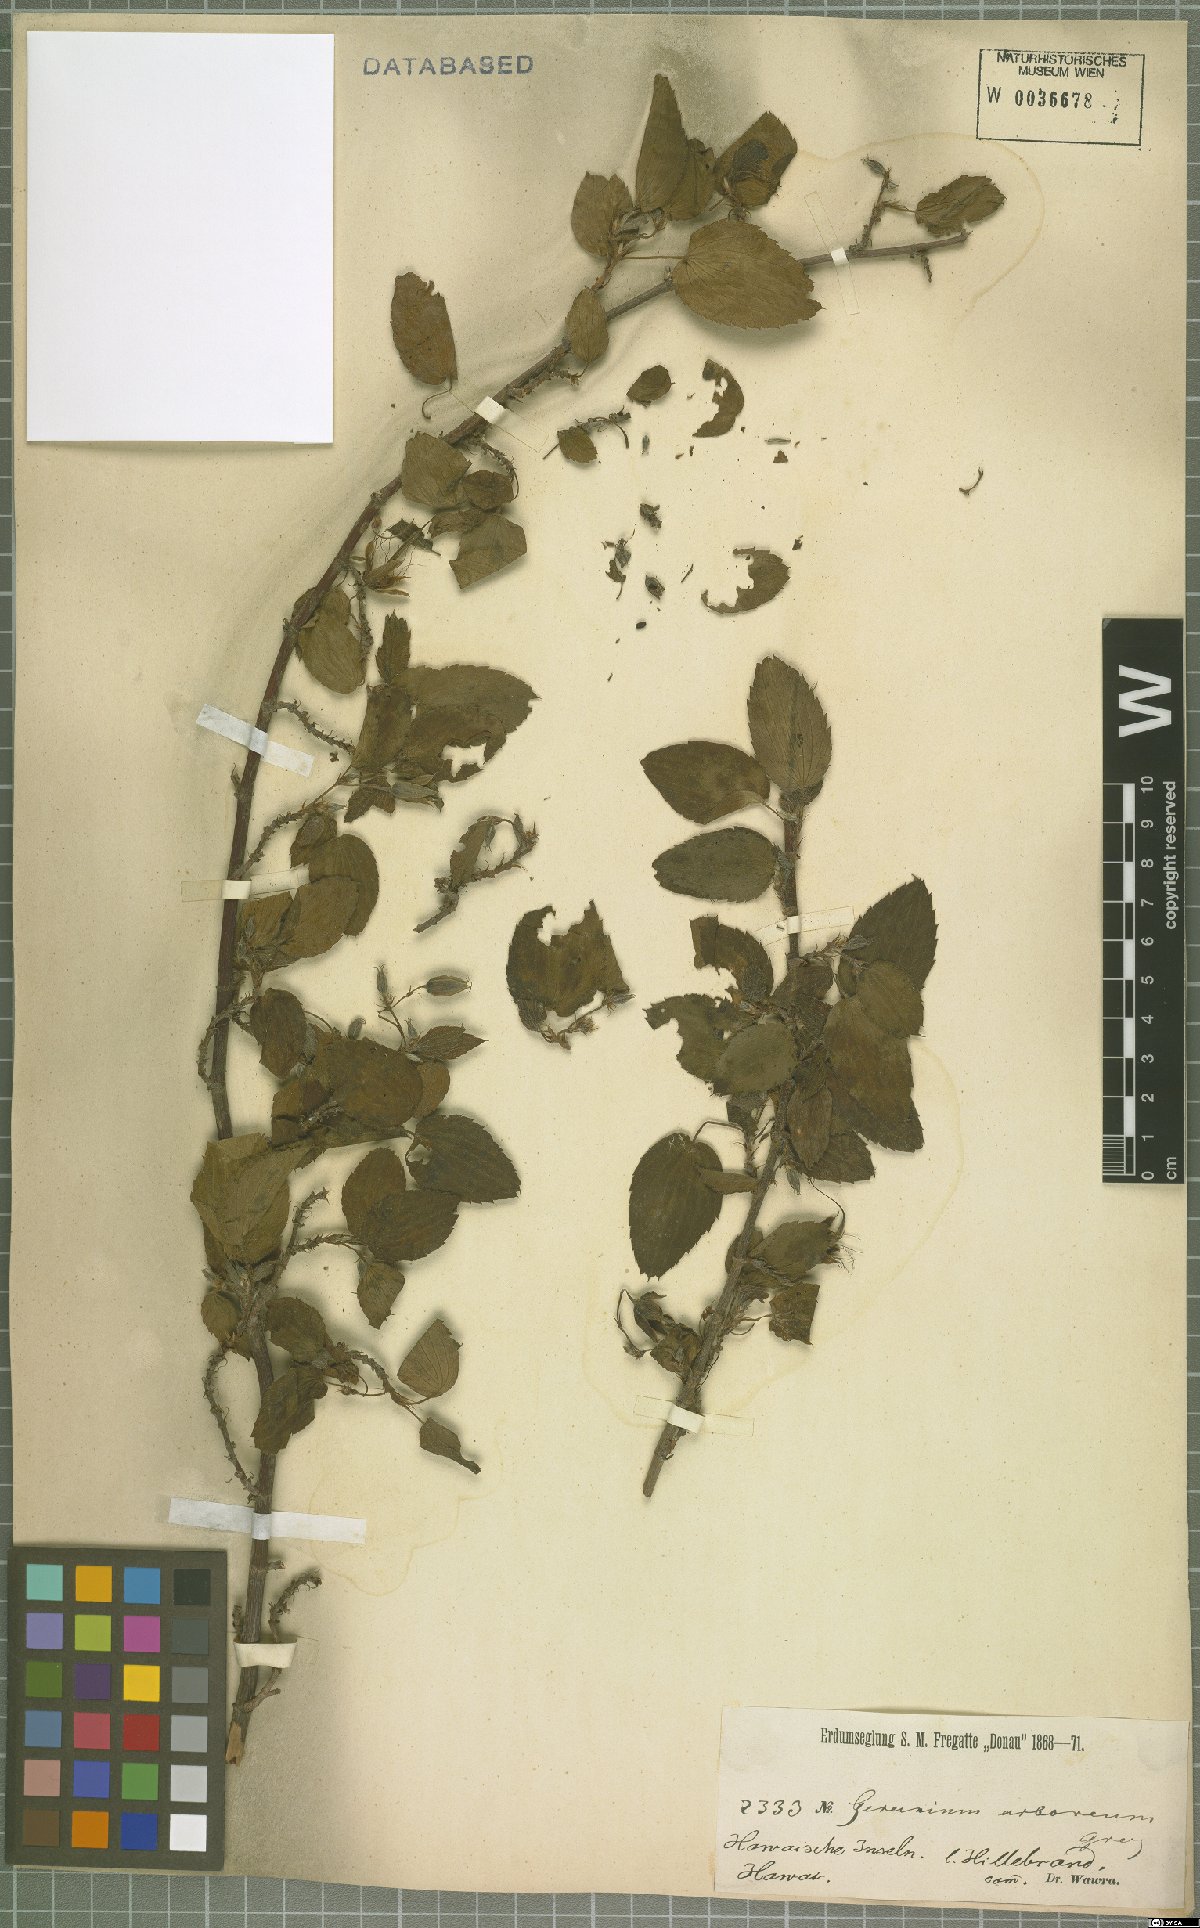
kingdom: Plantae
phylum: Tracheophyta
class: Magnoliopsida
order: Geraniales
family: Geraniaceae
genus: Geranium
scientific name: Geranium arboreum
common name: Hawaiian red-flower geranium
